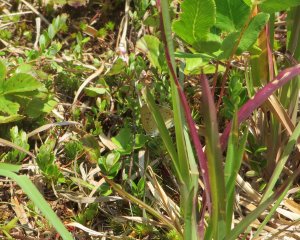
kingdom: Animalia
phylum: Arthropoda
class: Insecta
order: Lepidoptera
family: Sesiidae
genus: Sesia
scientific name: Sesia Lycaena epixanthe
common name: Bog Copper
